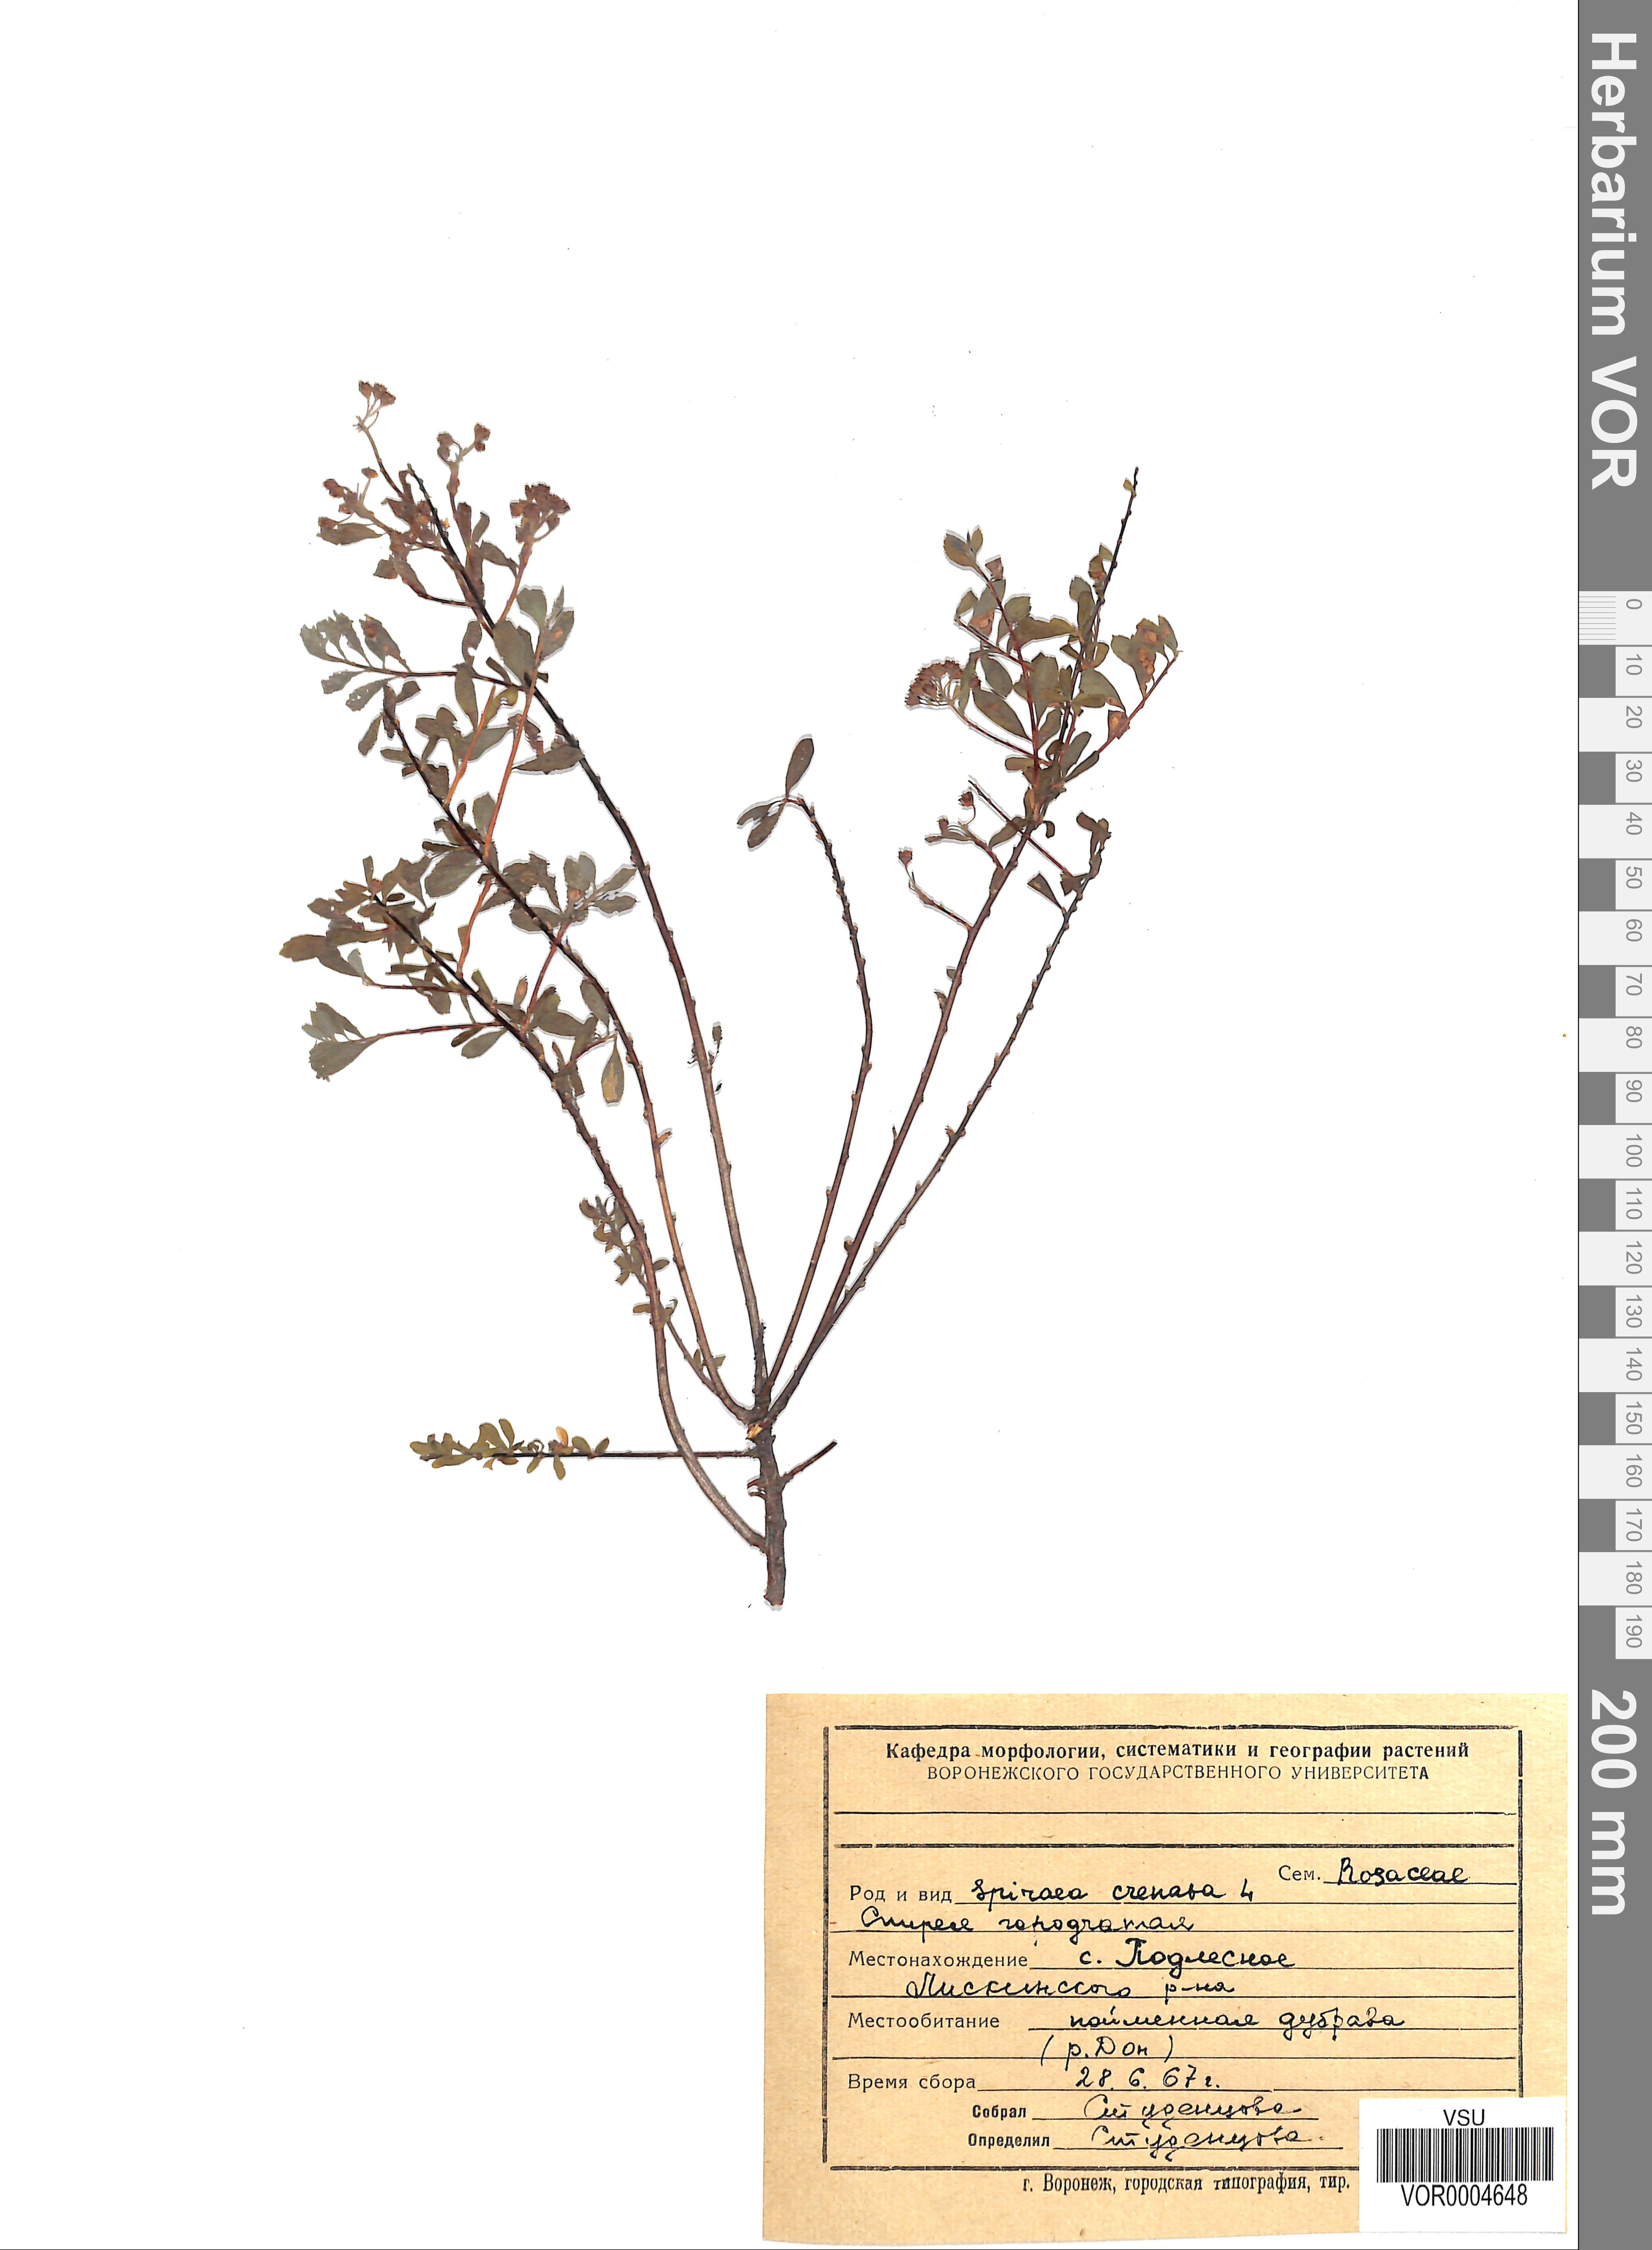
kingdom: Plantae
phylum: Tracheophyta
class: Magnoliopsida
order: Rosales
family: Rosaceae
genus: Spiraea
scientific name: Spiraea crenata
